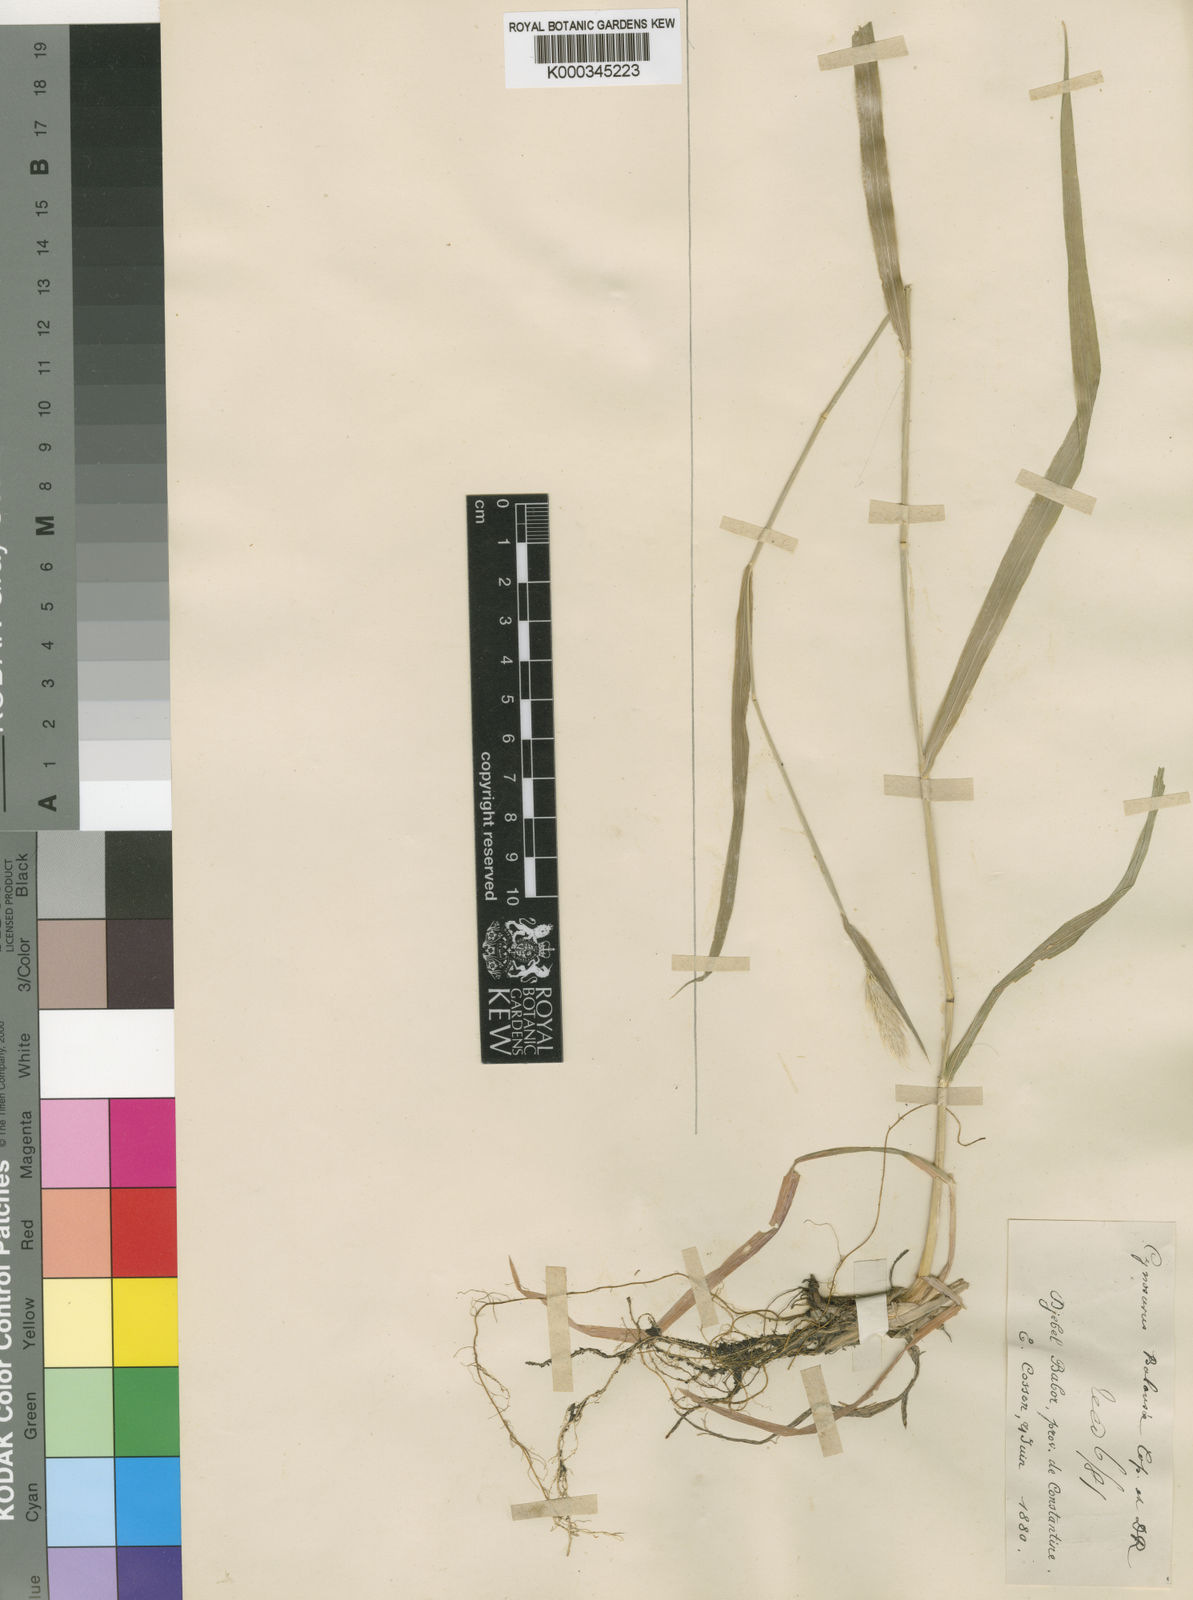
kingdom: Plantae
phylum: Tracheophyta
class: Liliopsida
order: Poales
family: Poaceae
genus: Cynosurus
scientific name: Cynosurus balansae
